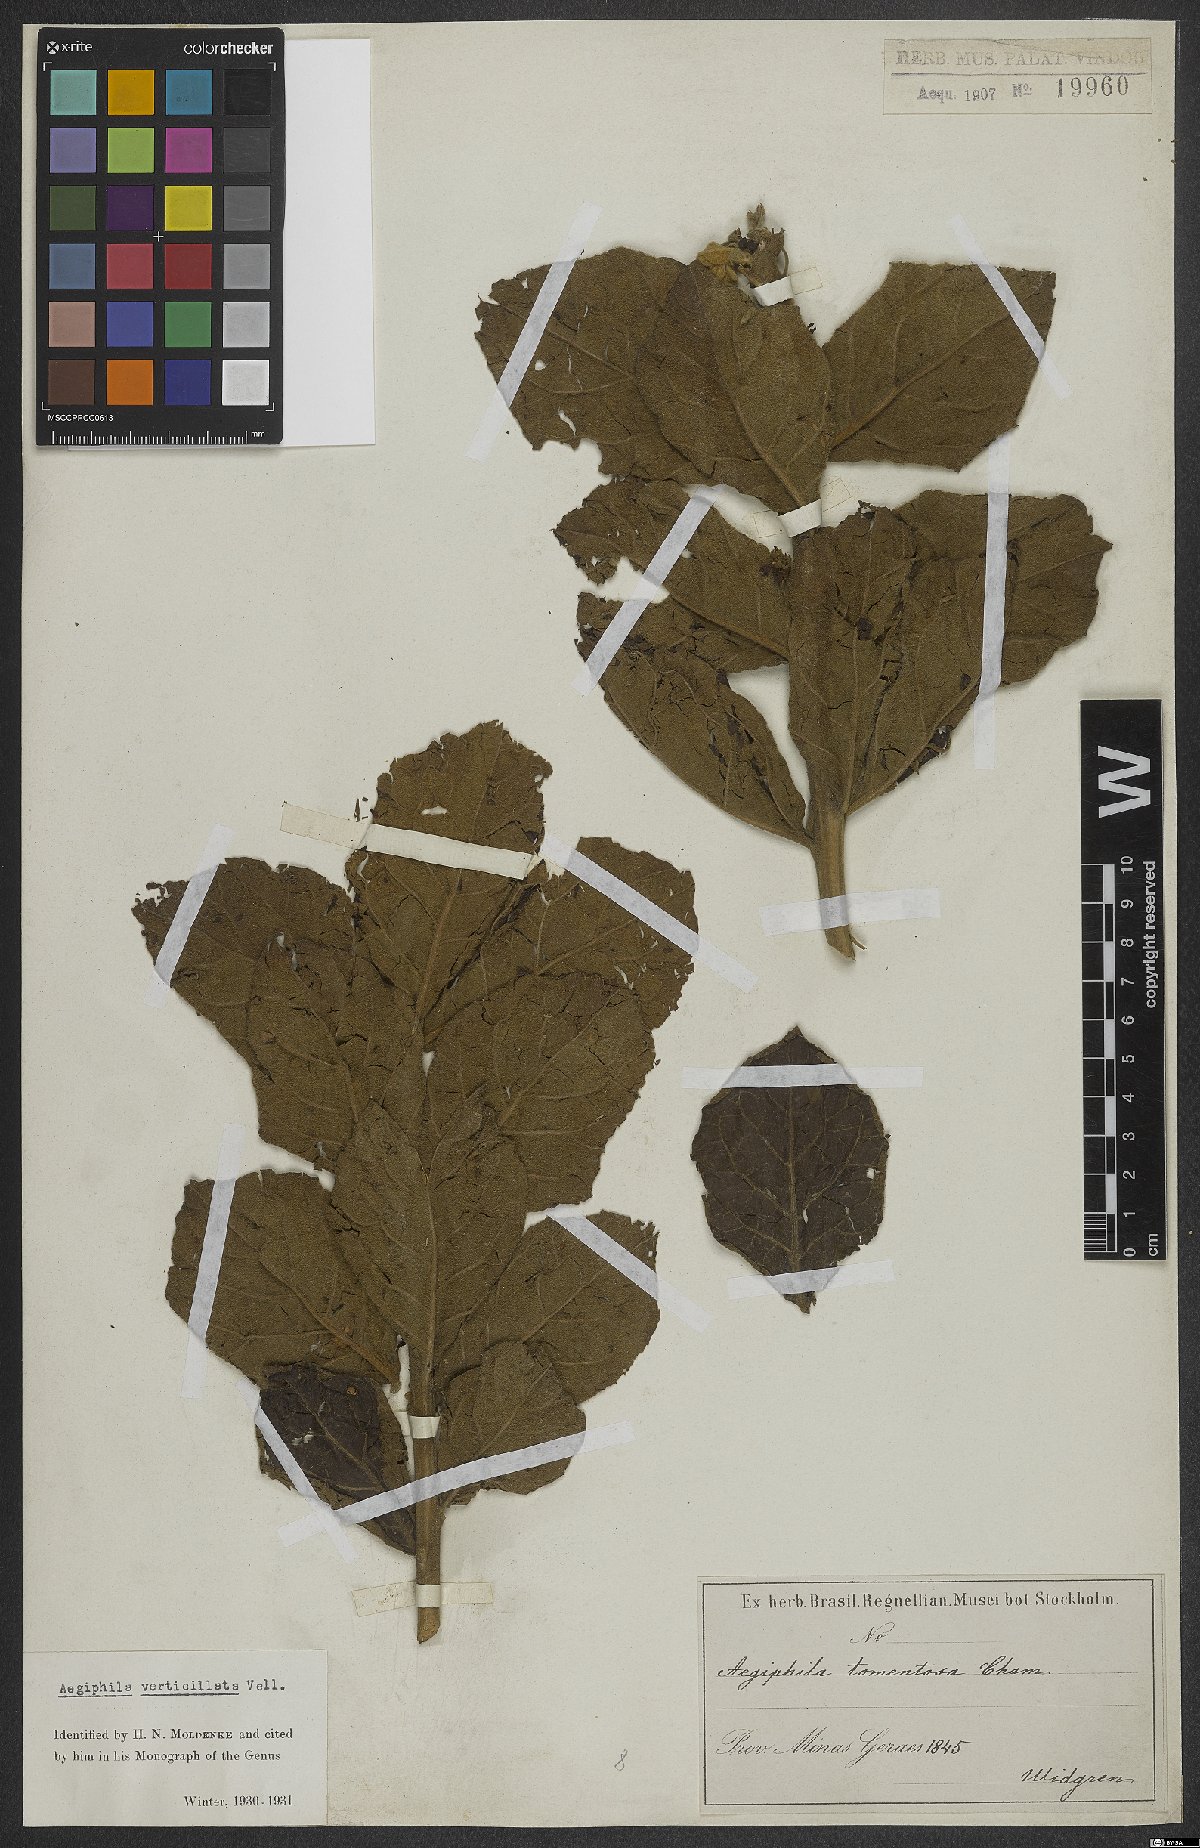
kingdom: Plantae
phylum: Tracheophyta
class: Magnoliopsida
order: Lamiales
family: Lamiaceae
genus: Aegiphila
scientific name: Aegiphila verticillata
